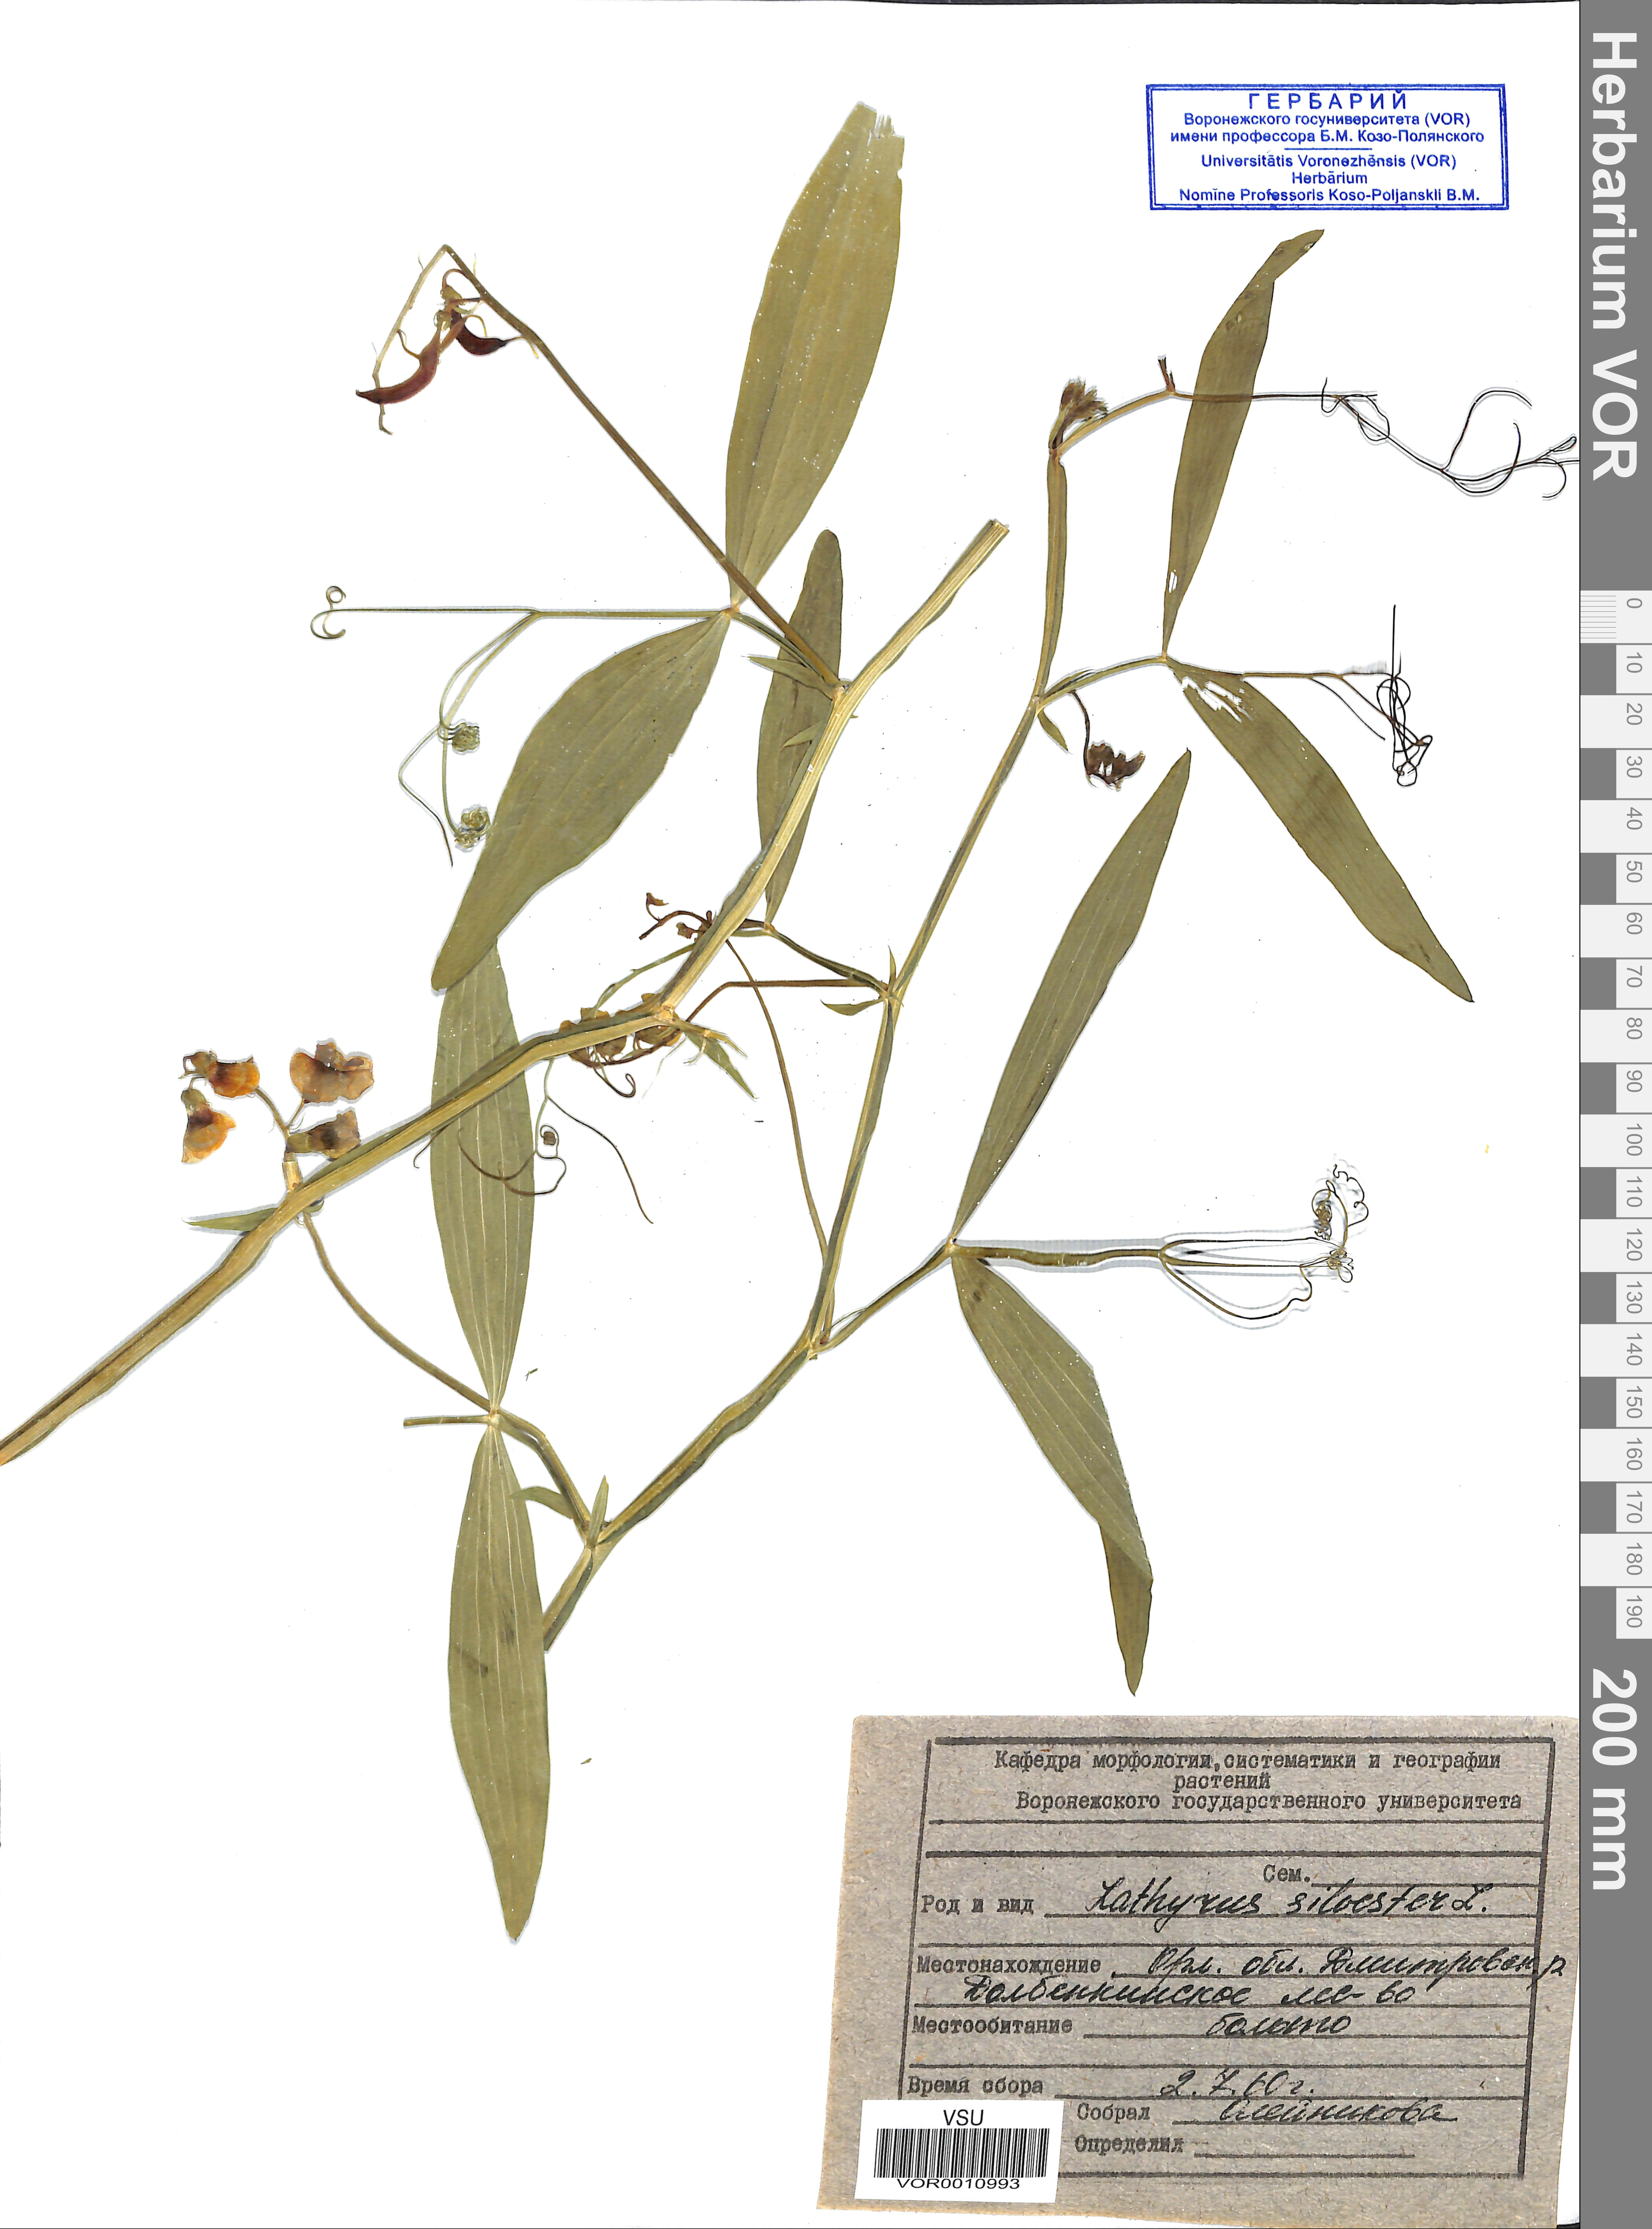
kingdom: Plantae
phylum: Tracheophyta
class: Magnoliopsida
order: Fabales
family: Fabaceae
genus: Lathyrus
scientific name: Lathyrus sylvestris
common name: Flat pea
